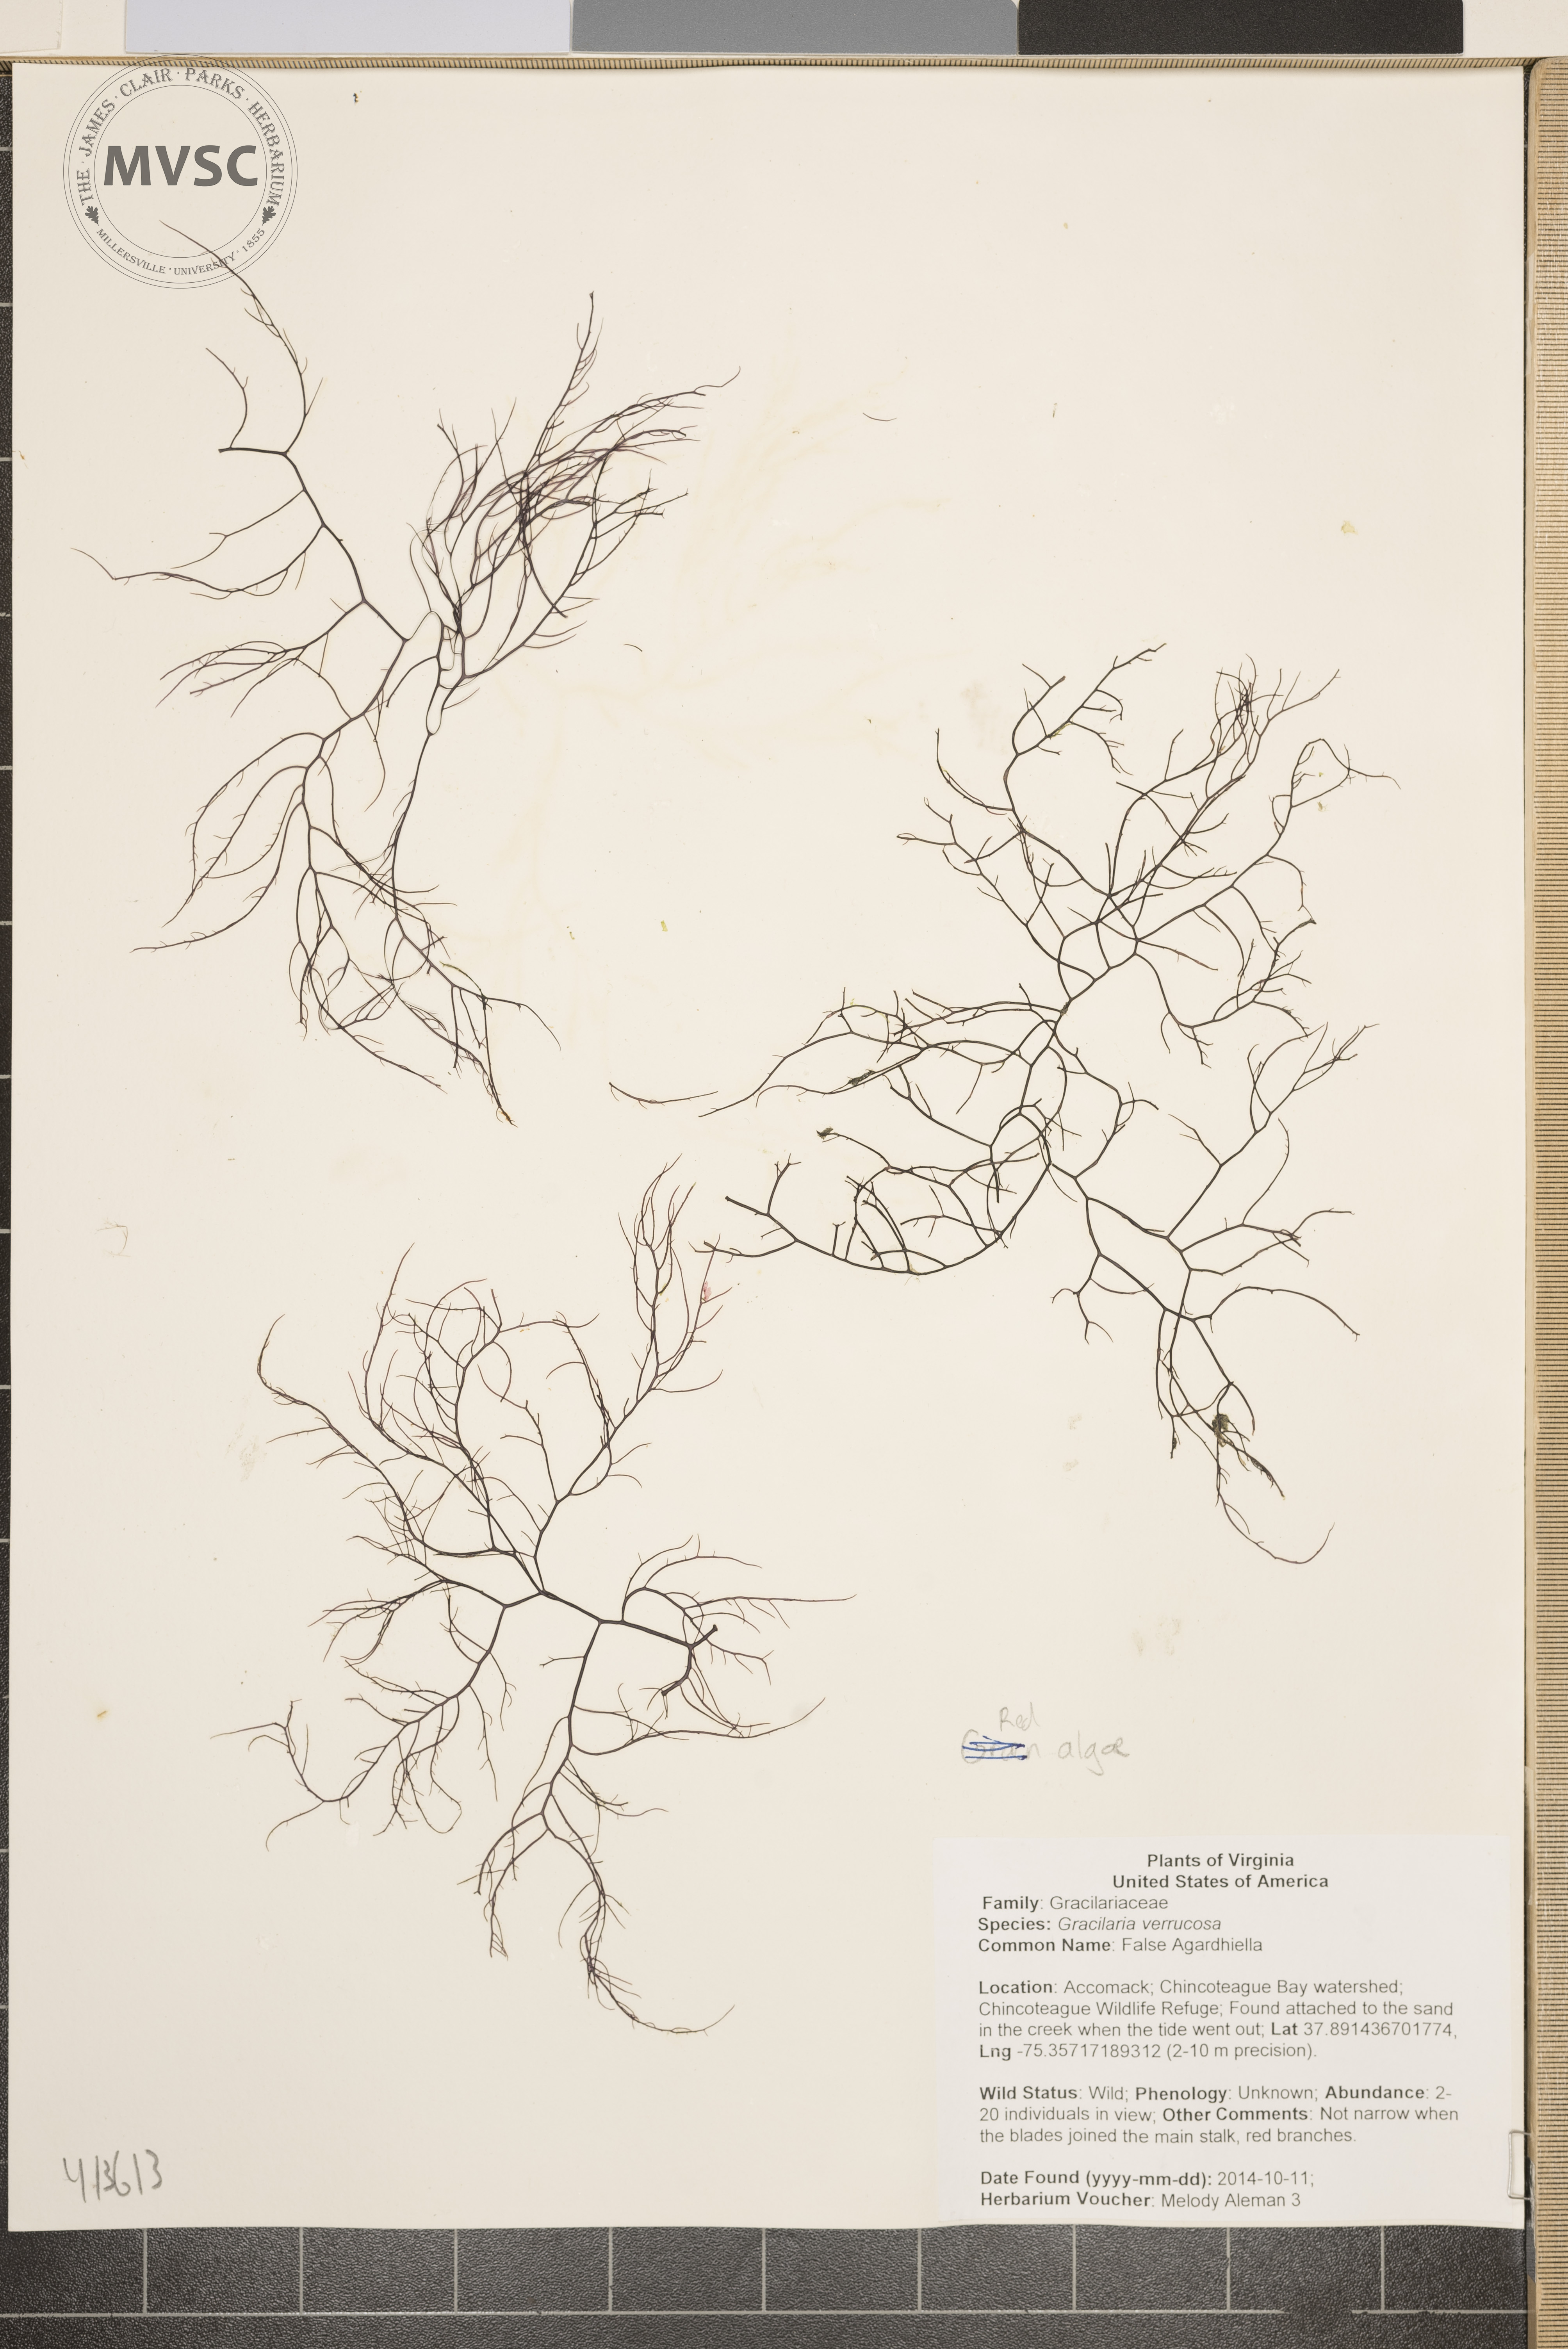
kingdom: Plantae
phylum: Rhodophyta
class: Florideophyceae
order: Gracilariales
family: Gracilariaceae
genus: Gracilaria
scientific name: Gracilaria longissima
